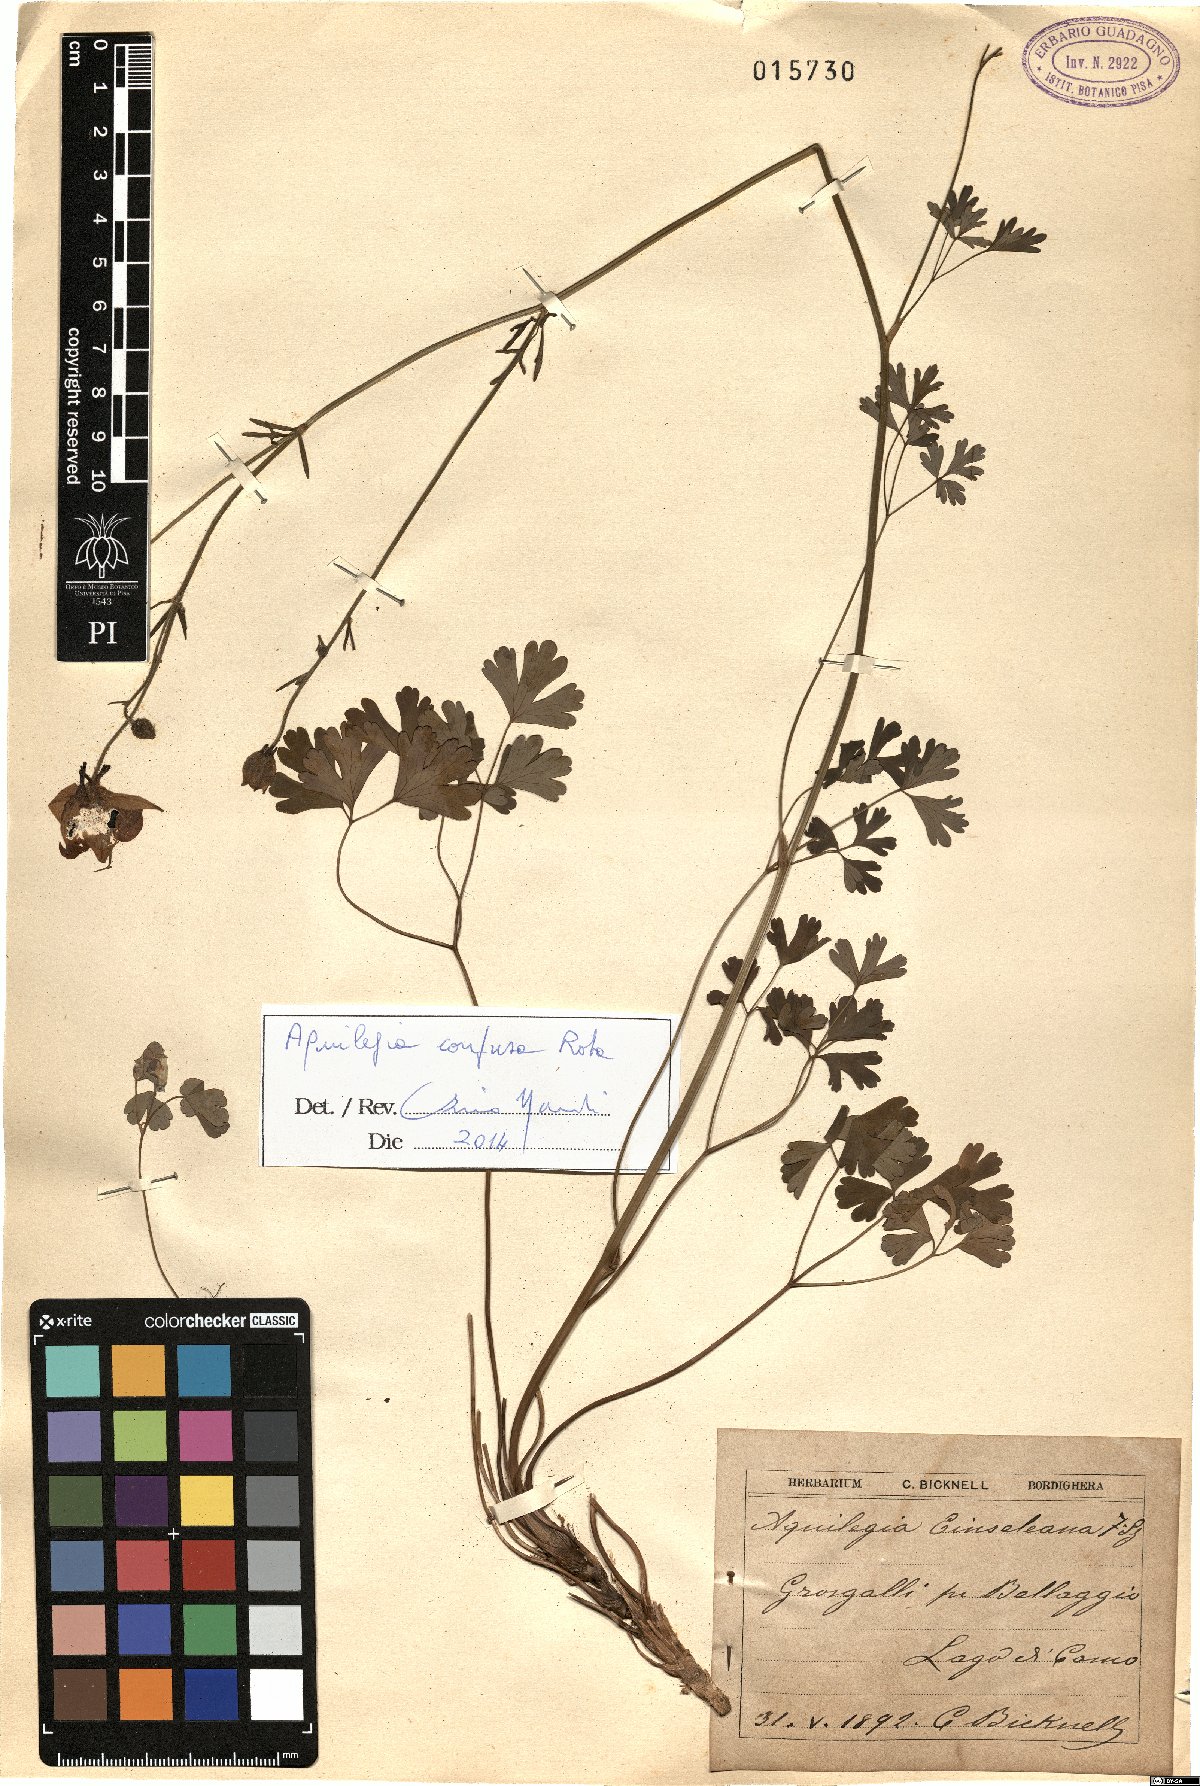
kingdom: Plantae
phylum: Tracheophyta
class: Magnoliopsida
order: Ranunculales
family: Ranunculaceae
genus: Aquilegia
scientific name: Aquilegia einseleana
